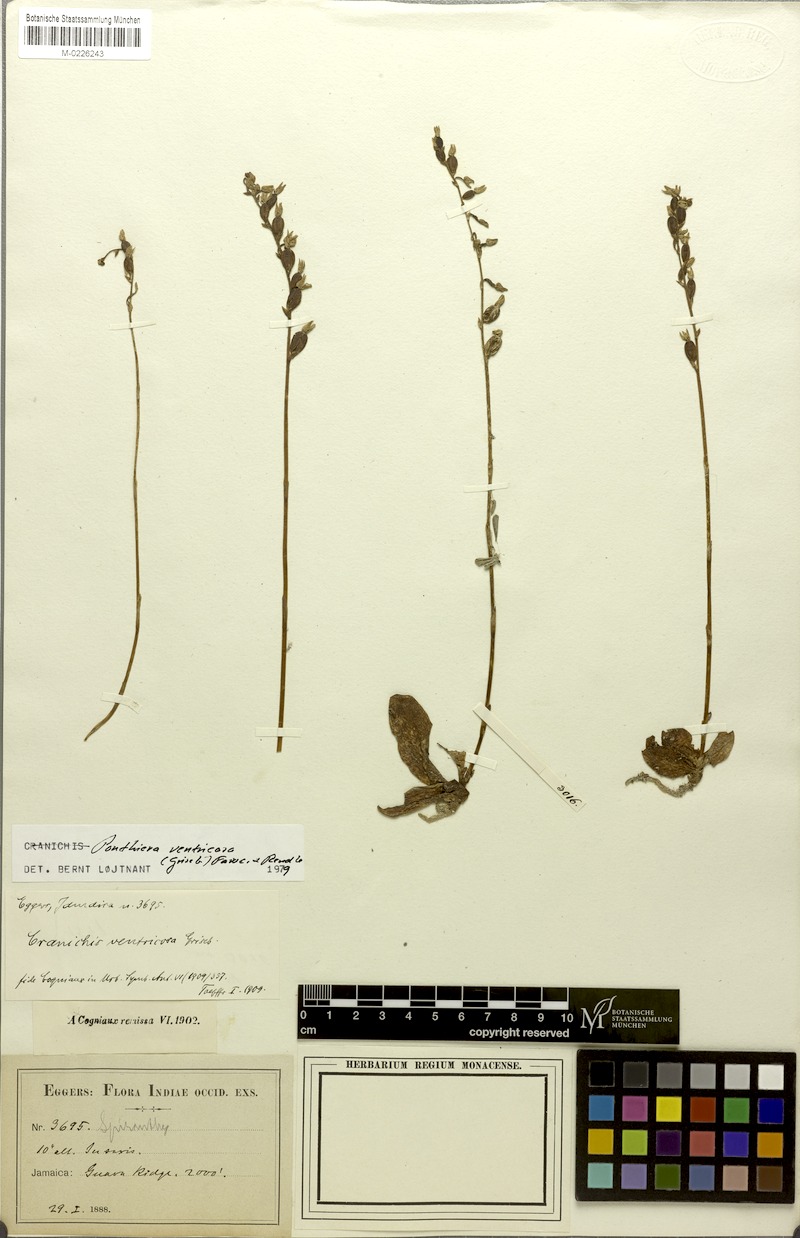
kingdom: Plantae
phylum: Tracheophyta
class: Liliopsida
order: Asparagales
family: Orchidaceae
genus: Ponthieva
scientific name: Ponthieva ventricosa
